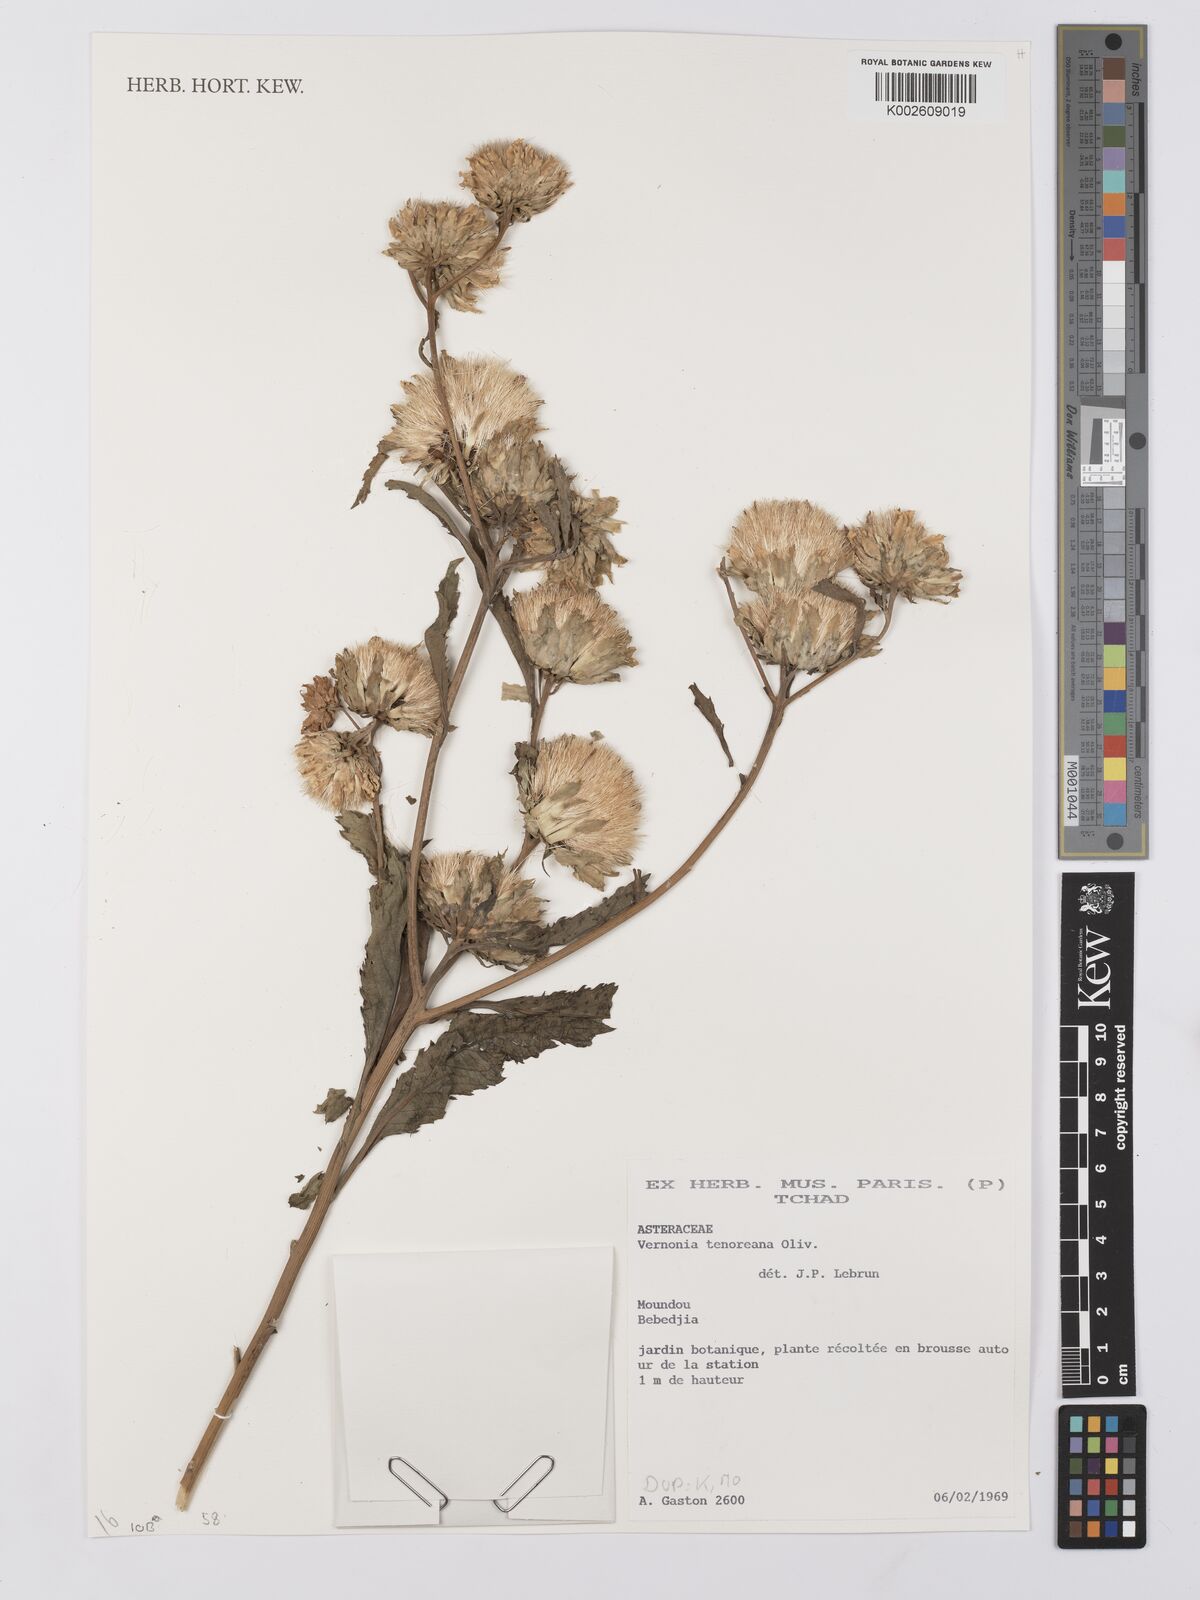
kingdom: Plantae
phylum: Tracheophyta
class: Magnoliopsida
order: Asterales
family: Asteraceae
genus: Baccharoides
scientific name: Baccharoides tenoreana
